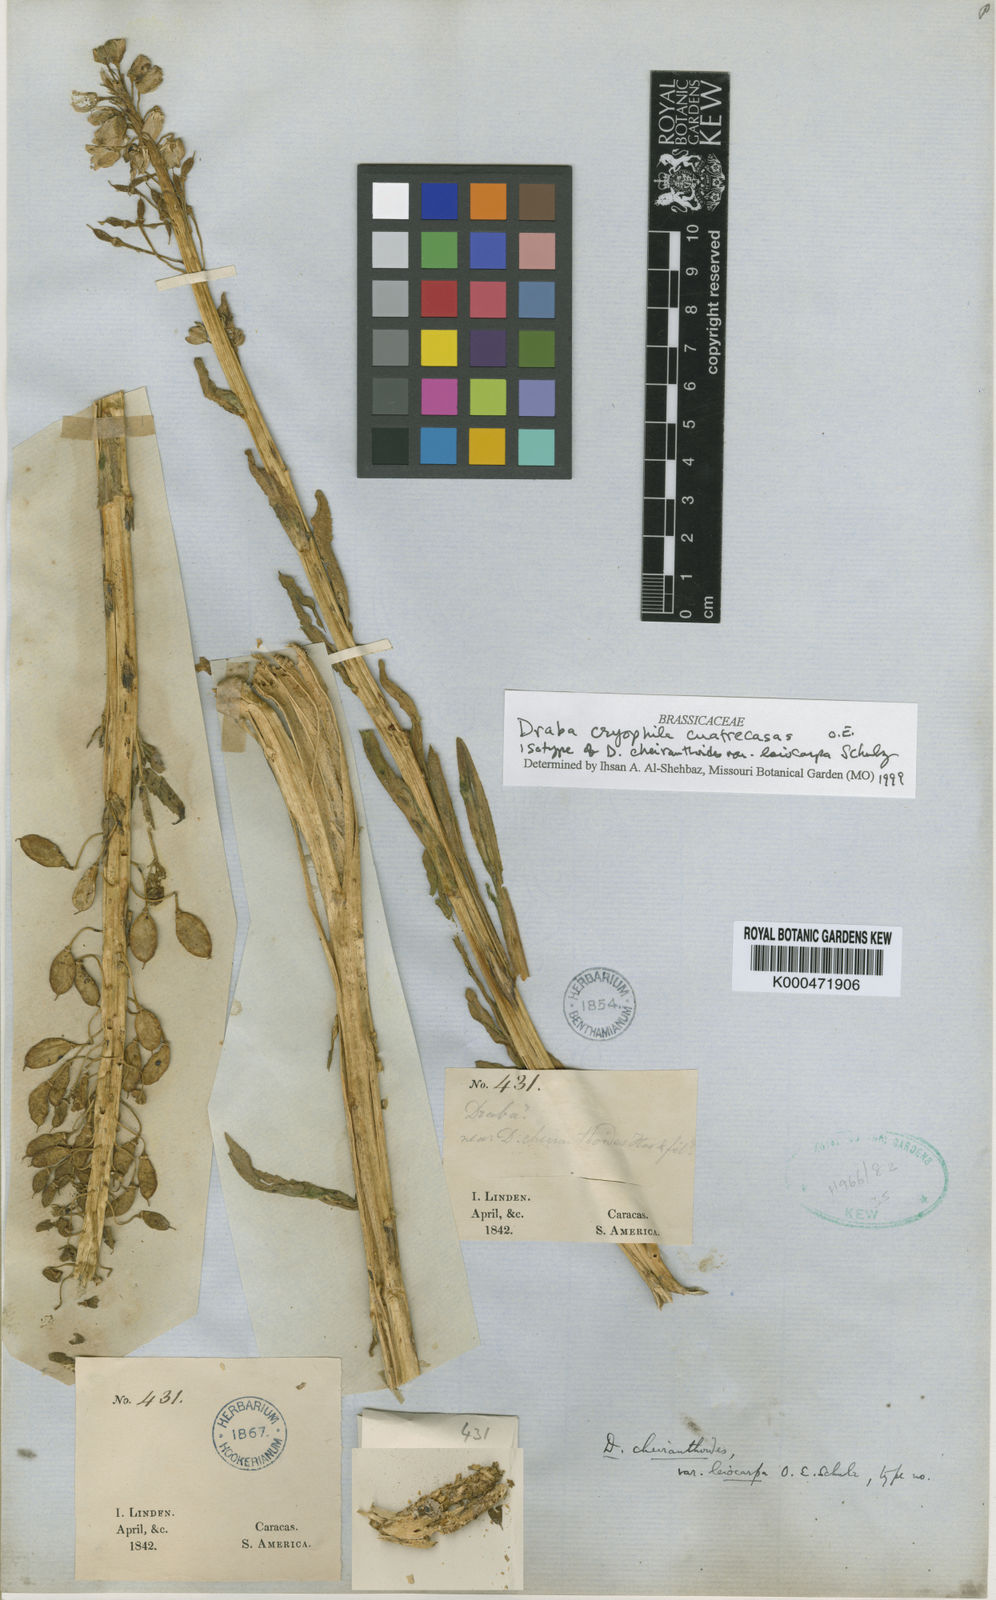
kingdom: Plantae
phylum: Tracheophyta
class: Magnoliopsida
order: Brassicales
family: Brassicaceae
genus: Draba
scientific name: Draba cryophila
